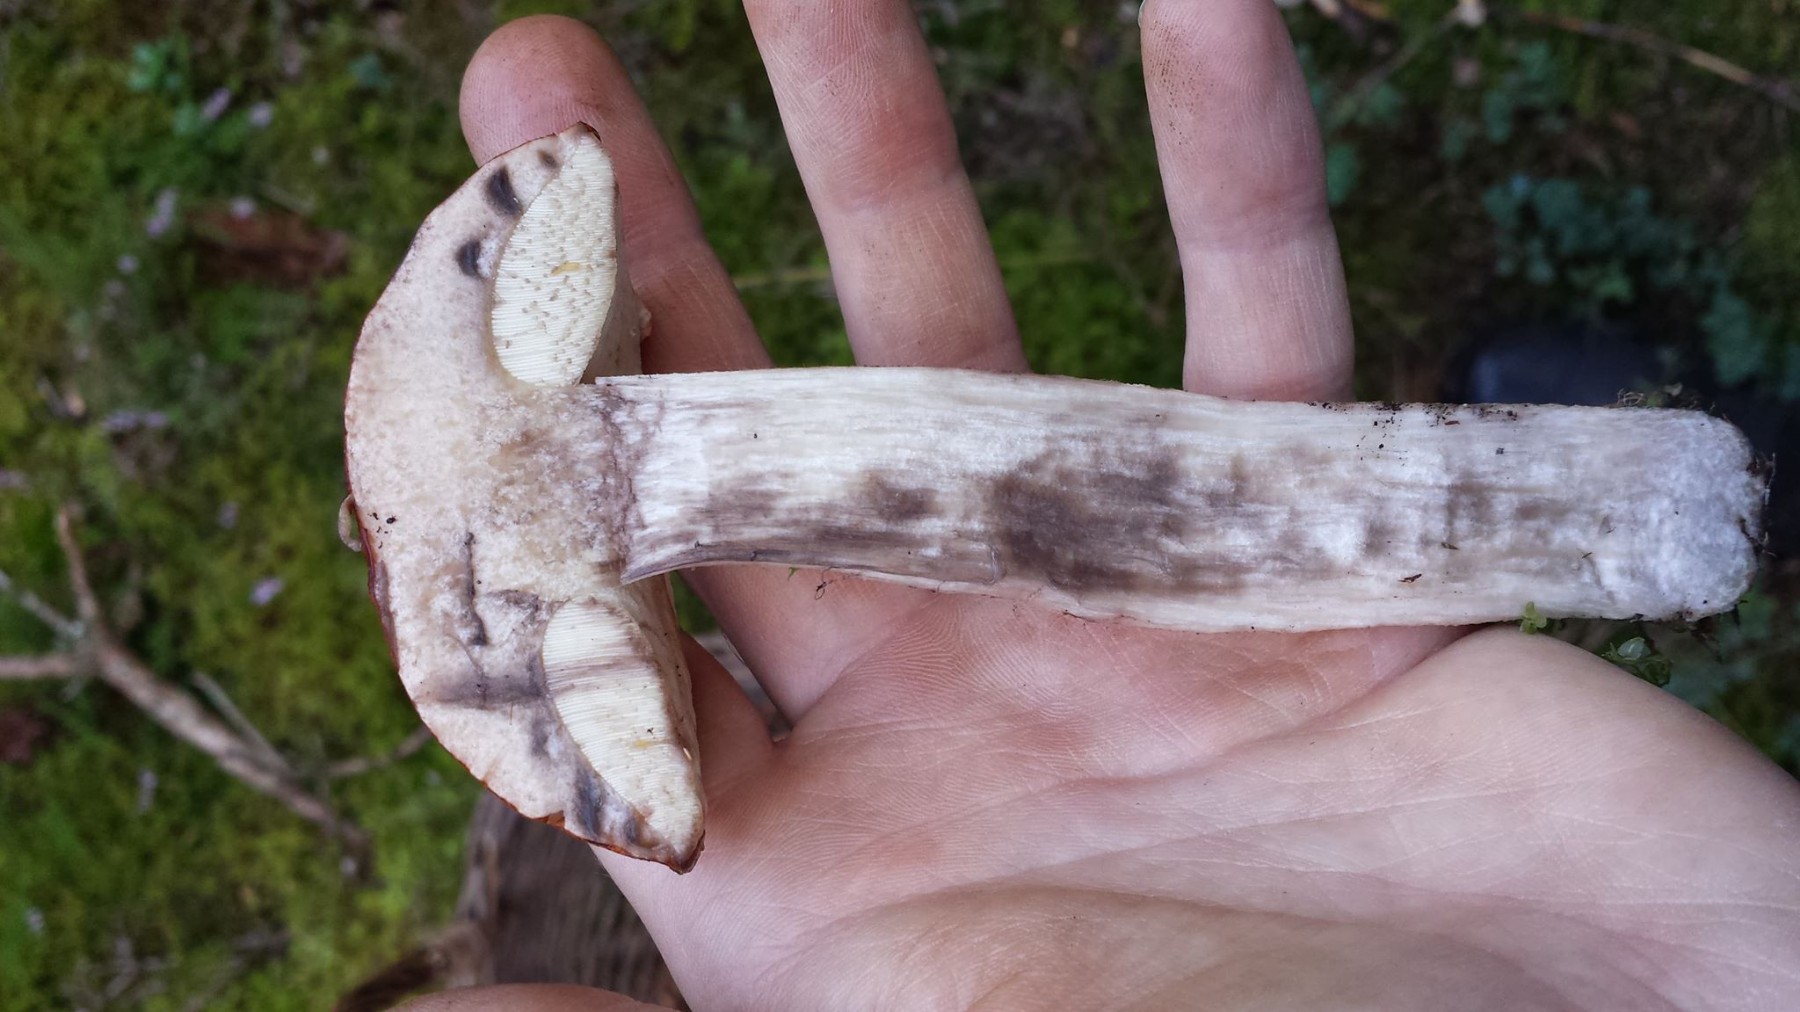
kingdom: Fungi
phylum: Basidiomycota
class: Agaricomycetes
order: Boletales
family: Boletaceae
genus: Leccinum
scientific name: Leccinum albostipitatum
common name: aspe-skælrørhat
